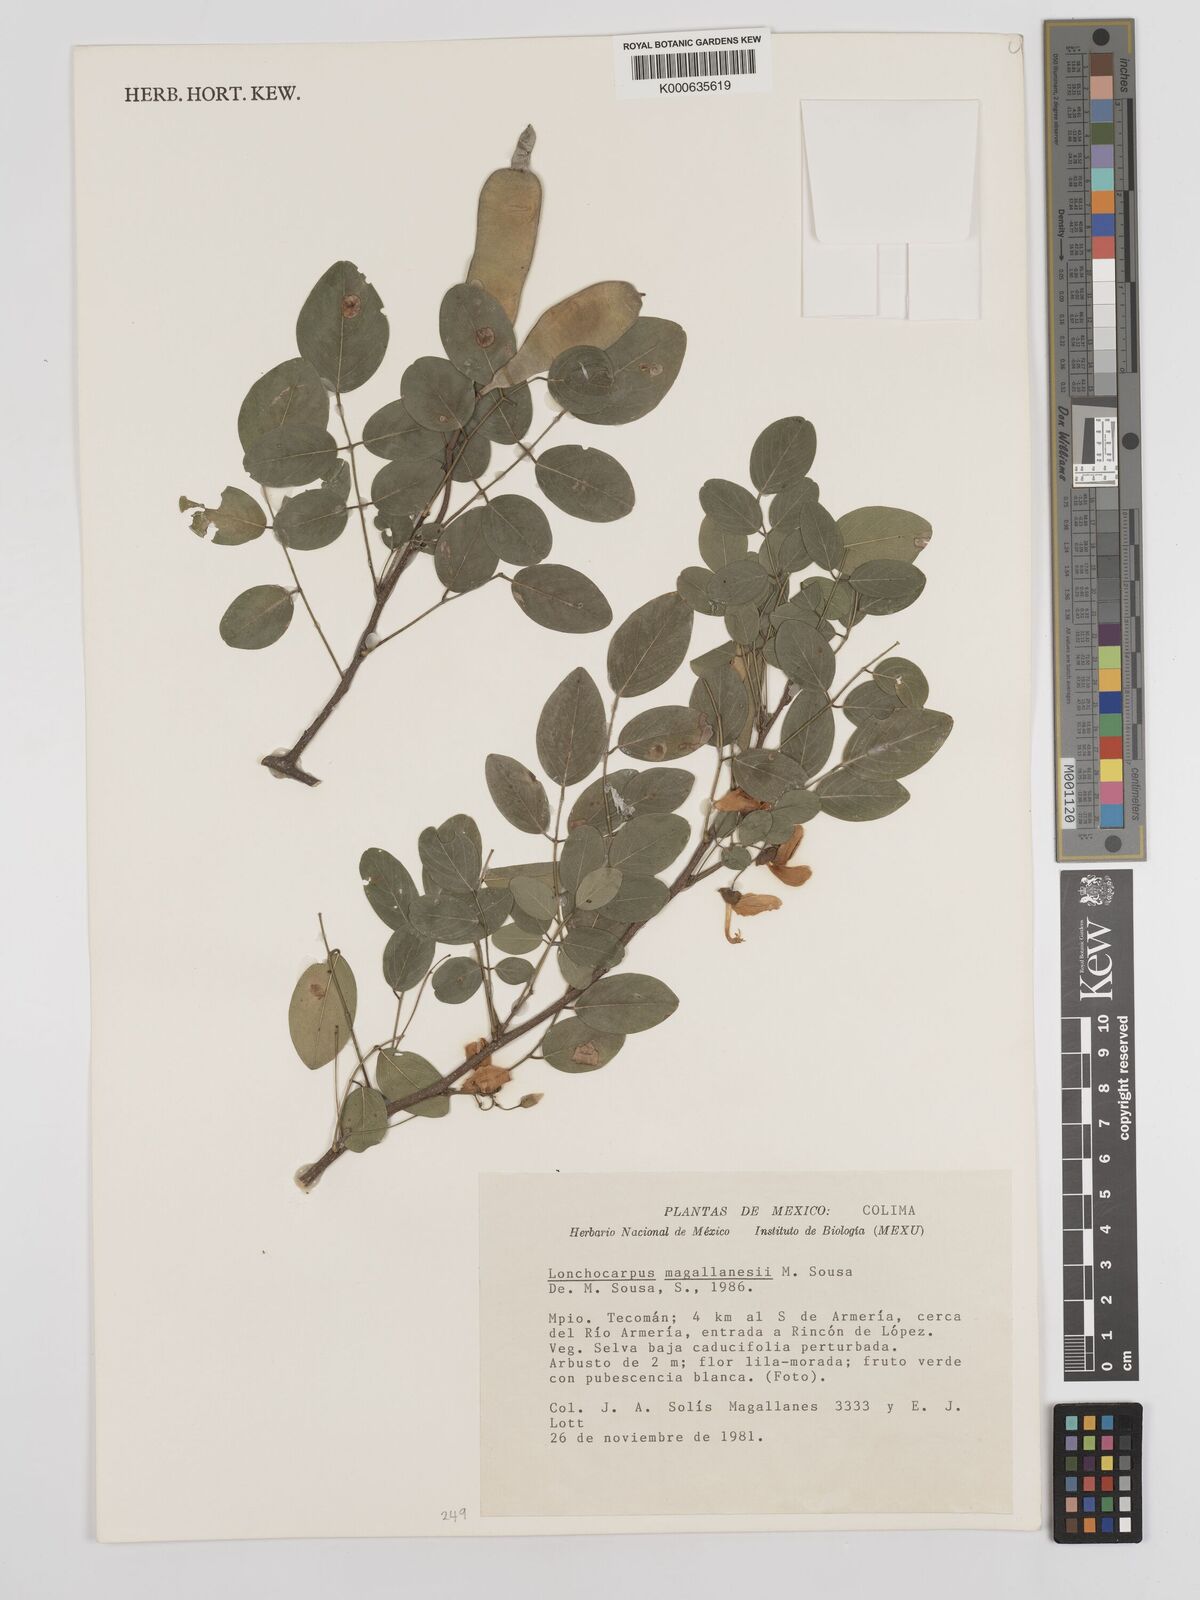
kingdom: Plantae
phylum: Tracheophyta
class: Magnoliopsida
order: Fabales
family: Fabaceae
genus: Lonchocarpus
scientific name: Lonchocarpus
